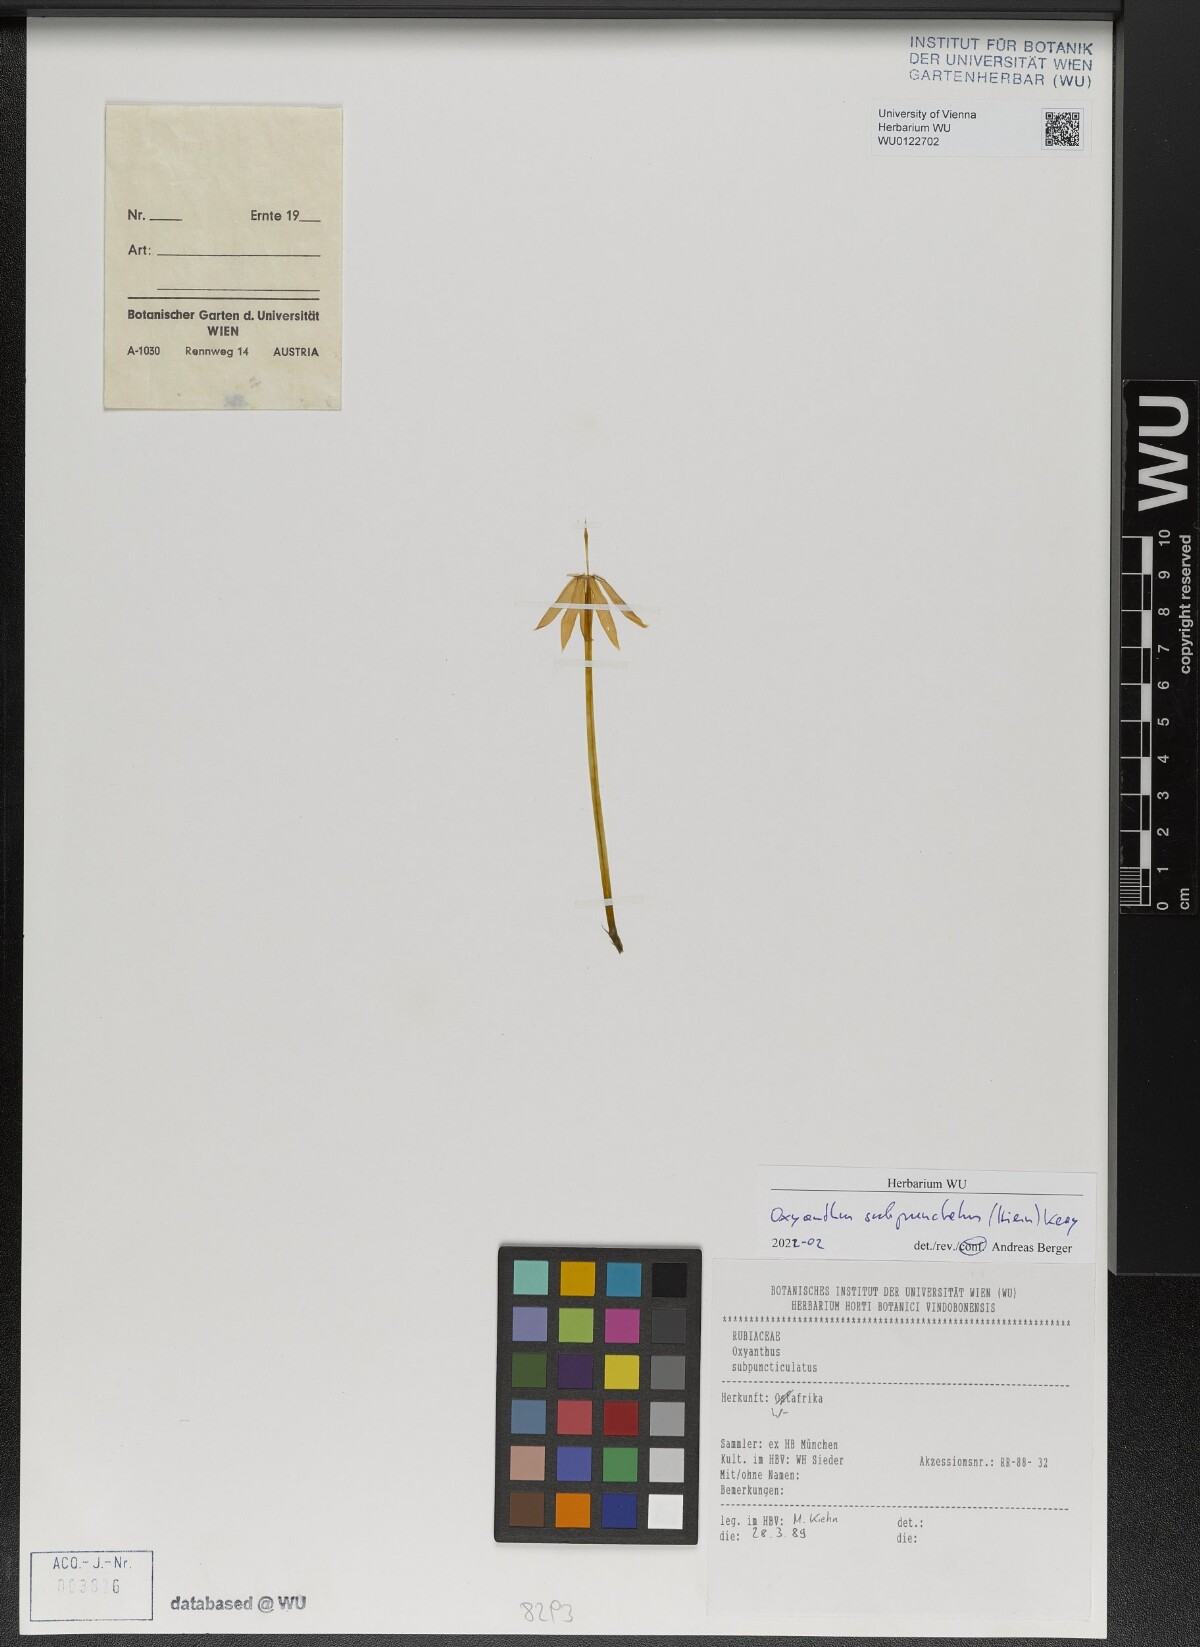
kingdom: Plantae
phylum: Tracheophyta
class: Magnoliopsida
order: Gentianales
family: Rubiaceae
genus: Oxyanthus
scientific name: Oxyanthus subpunctatus
